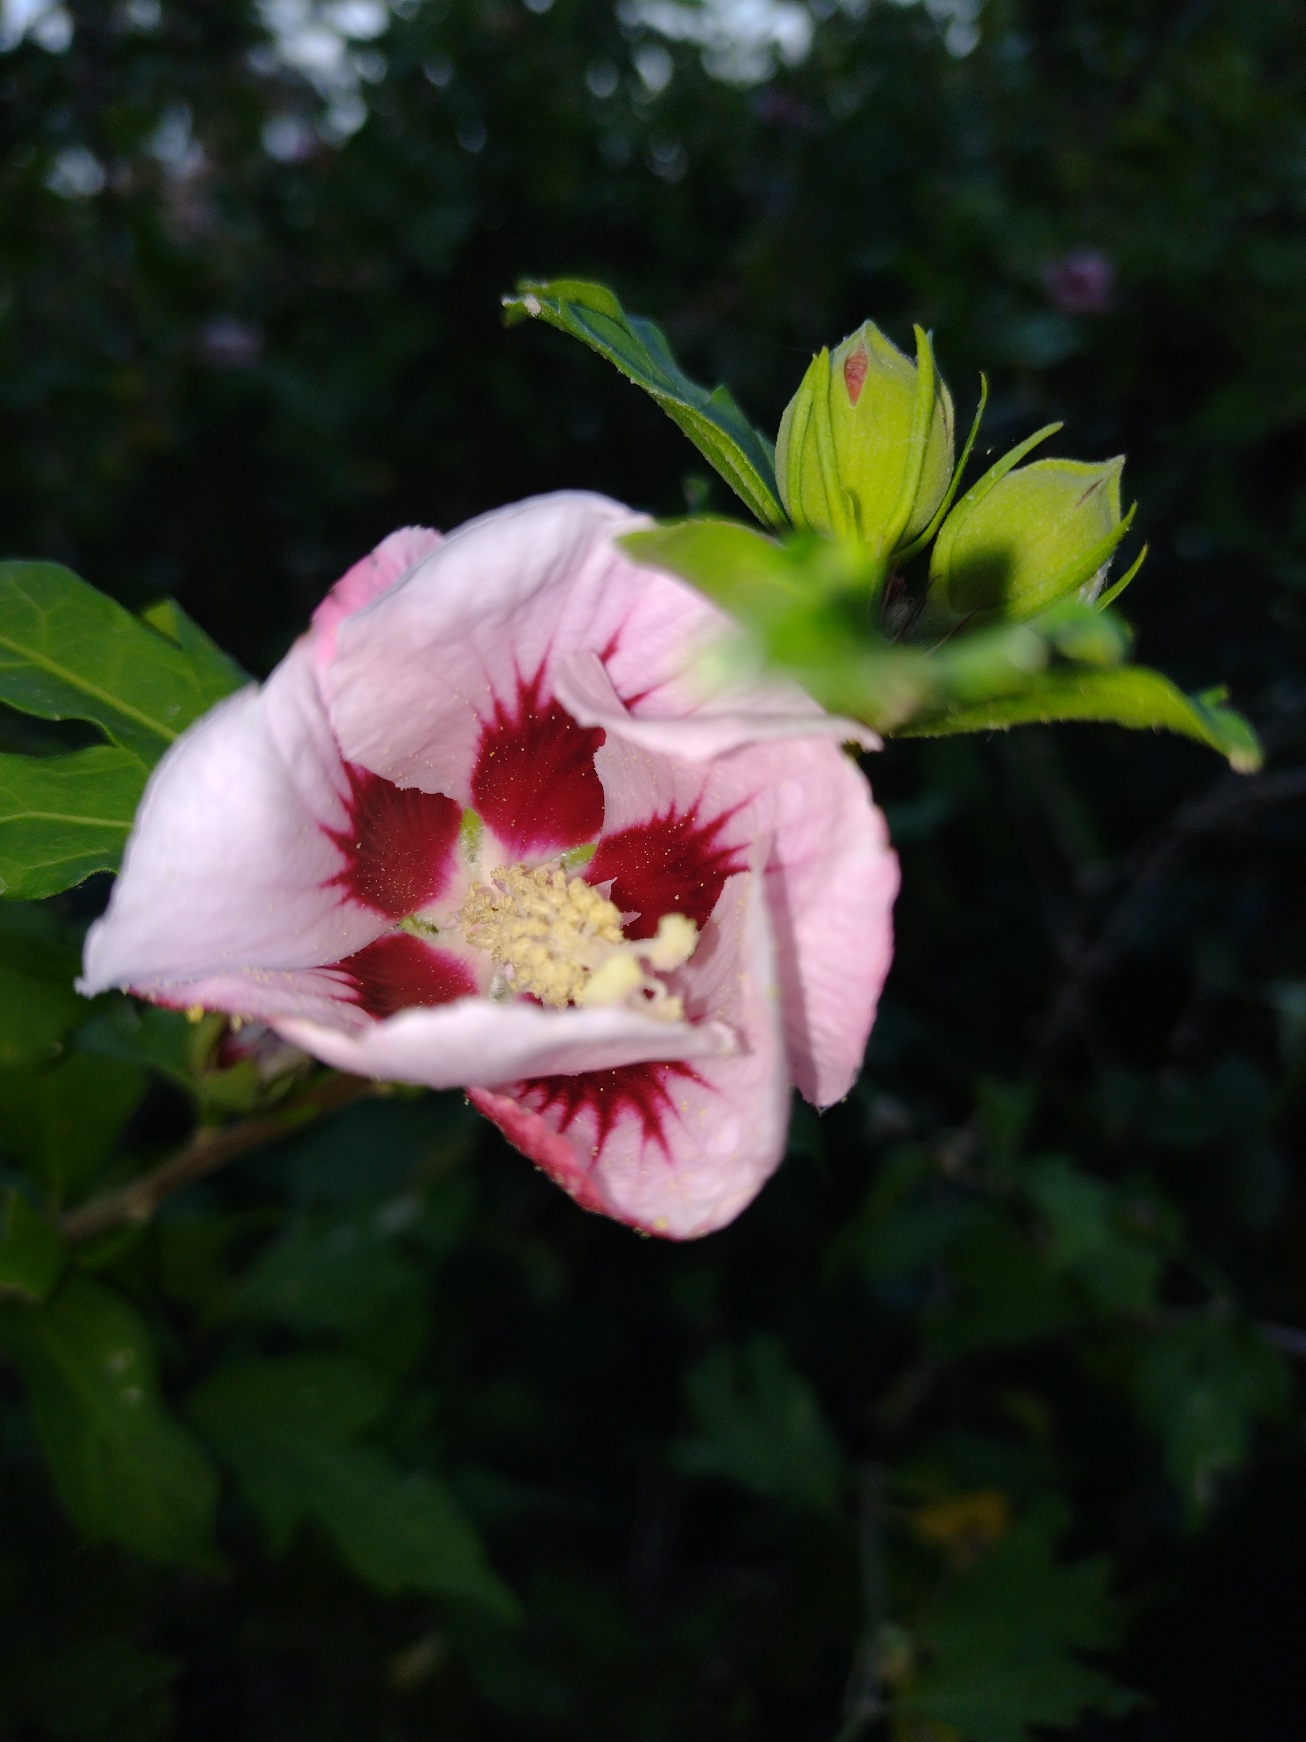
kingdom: Plantae
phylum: Tracheophyta
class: Magnoliopsida
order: Malvales
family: Malvaceae
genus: Hibiscus
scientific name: Hibiscus
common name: Hibiskusslægten
